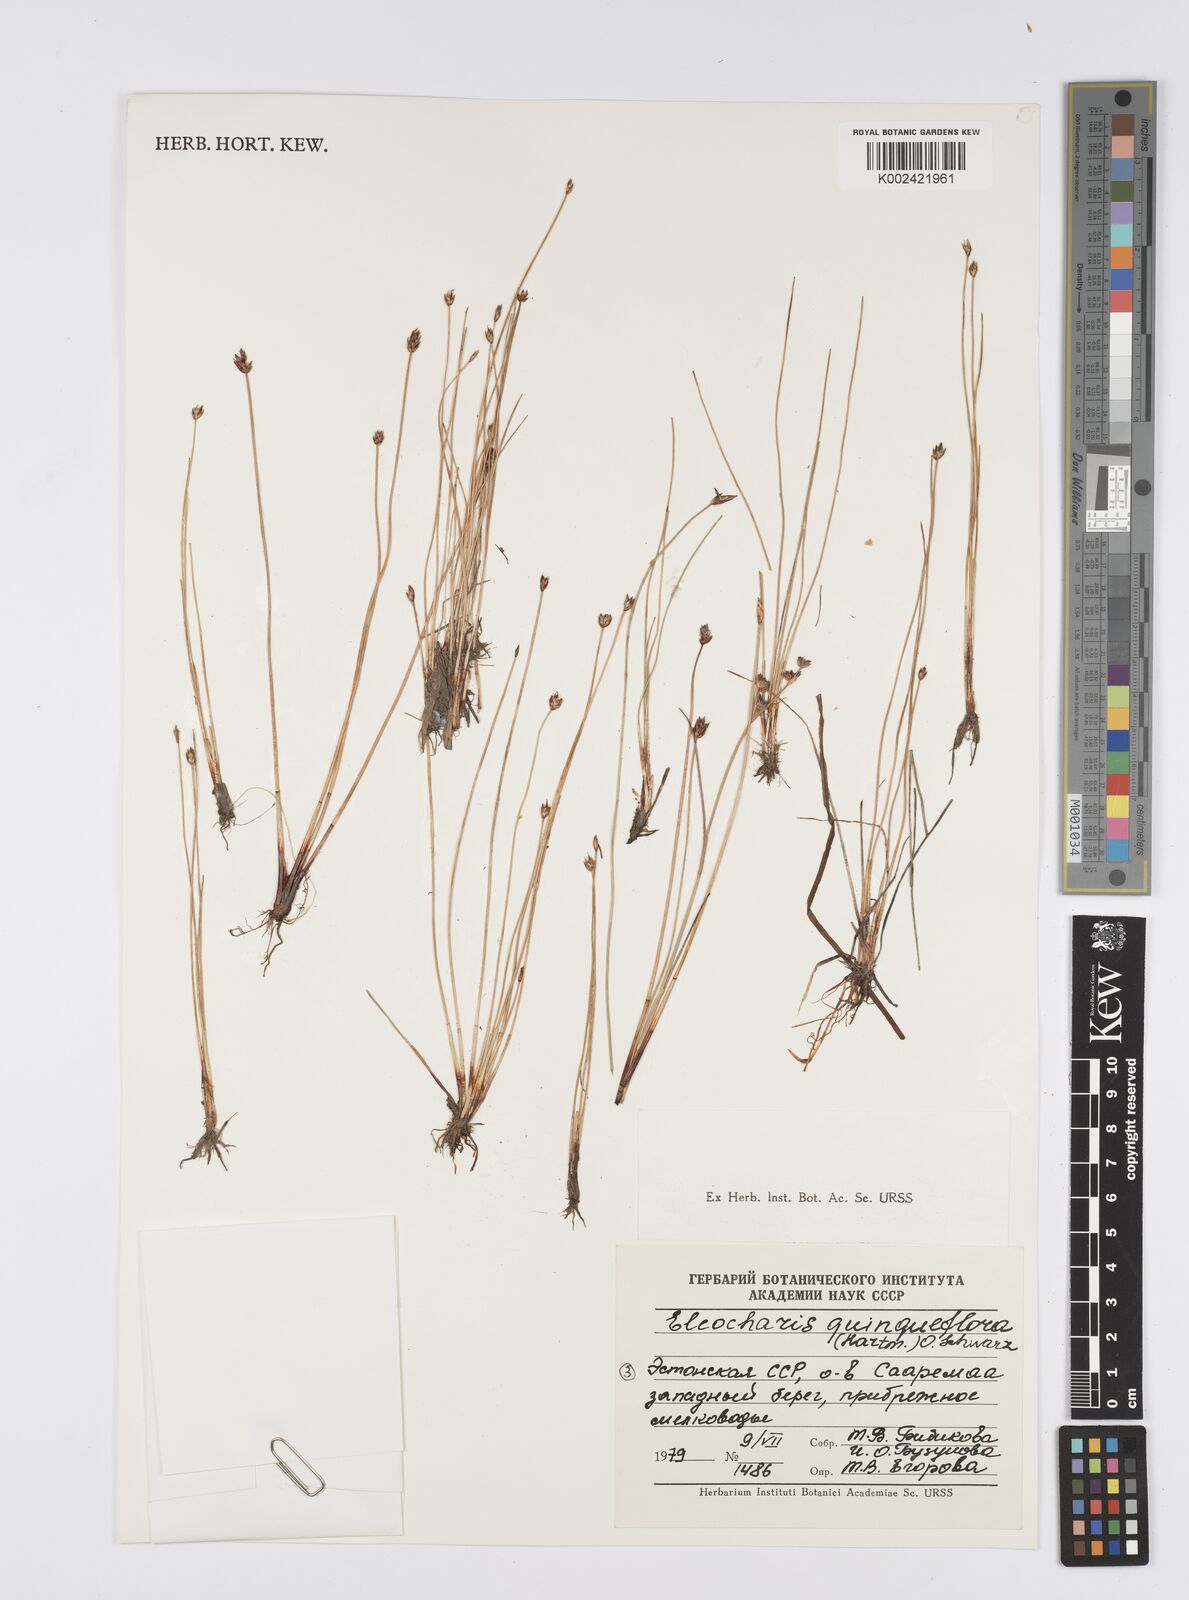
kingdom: Plantae
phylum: Tracheophyta
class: Liliopsida
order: Poales
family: Cyperaceae
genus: Eleocharis
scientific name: Eleocharis quinqueflora
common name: Few-flowered spike-rush
